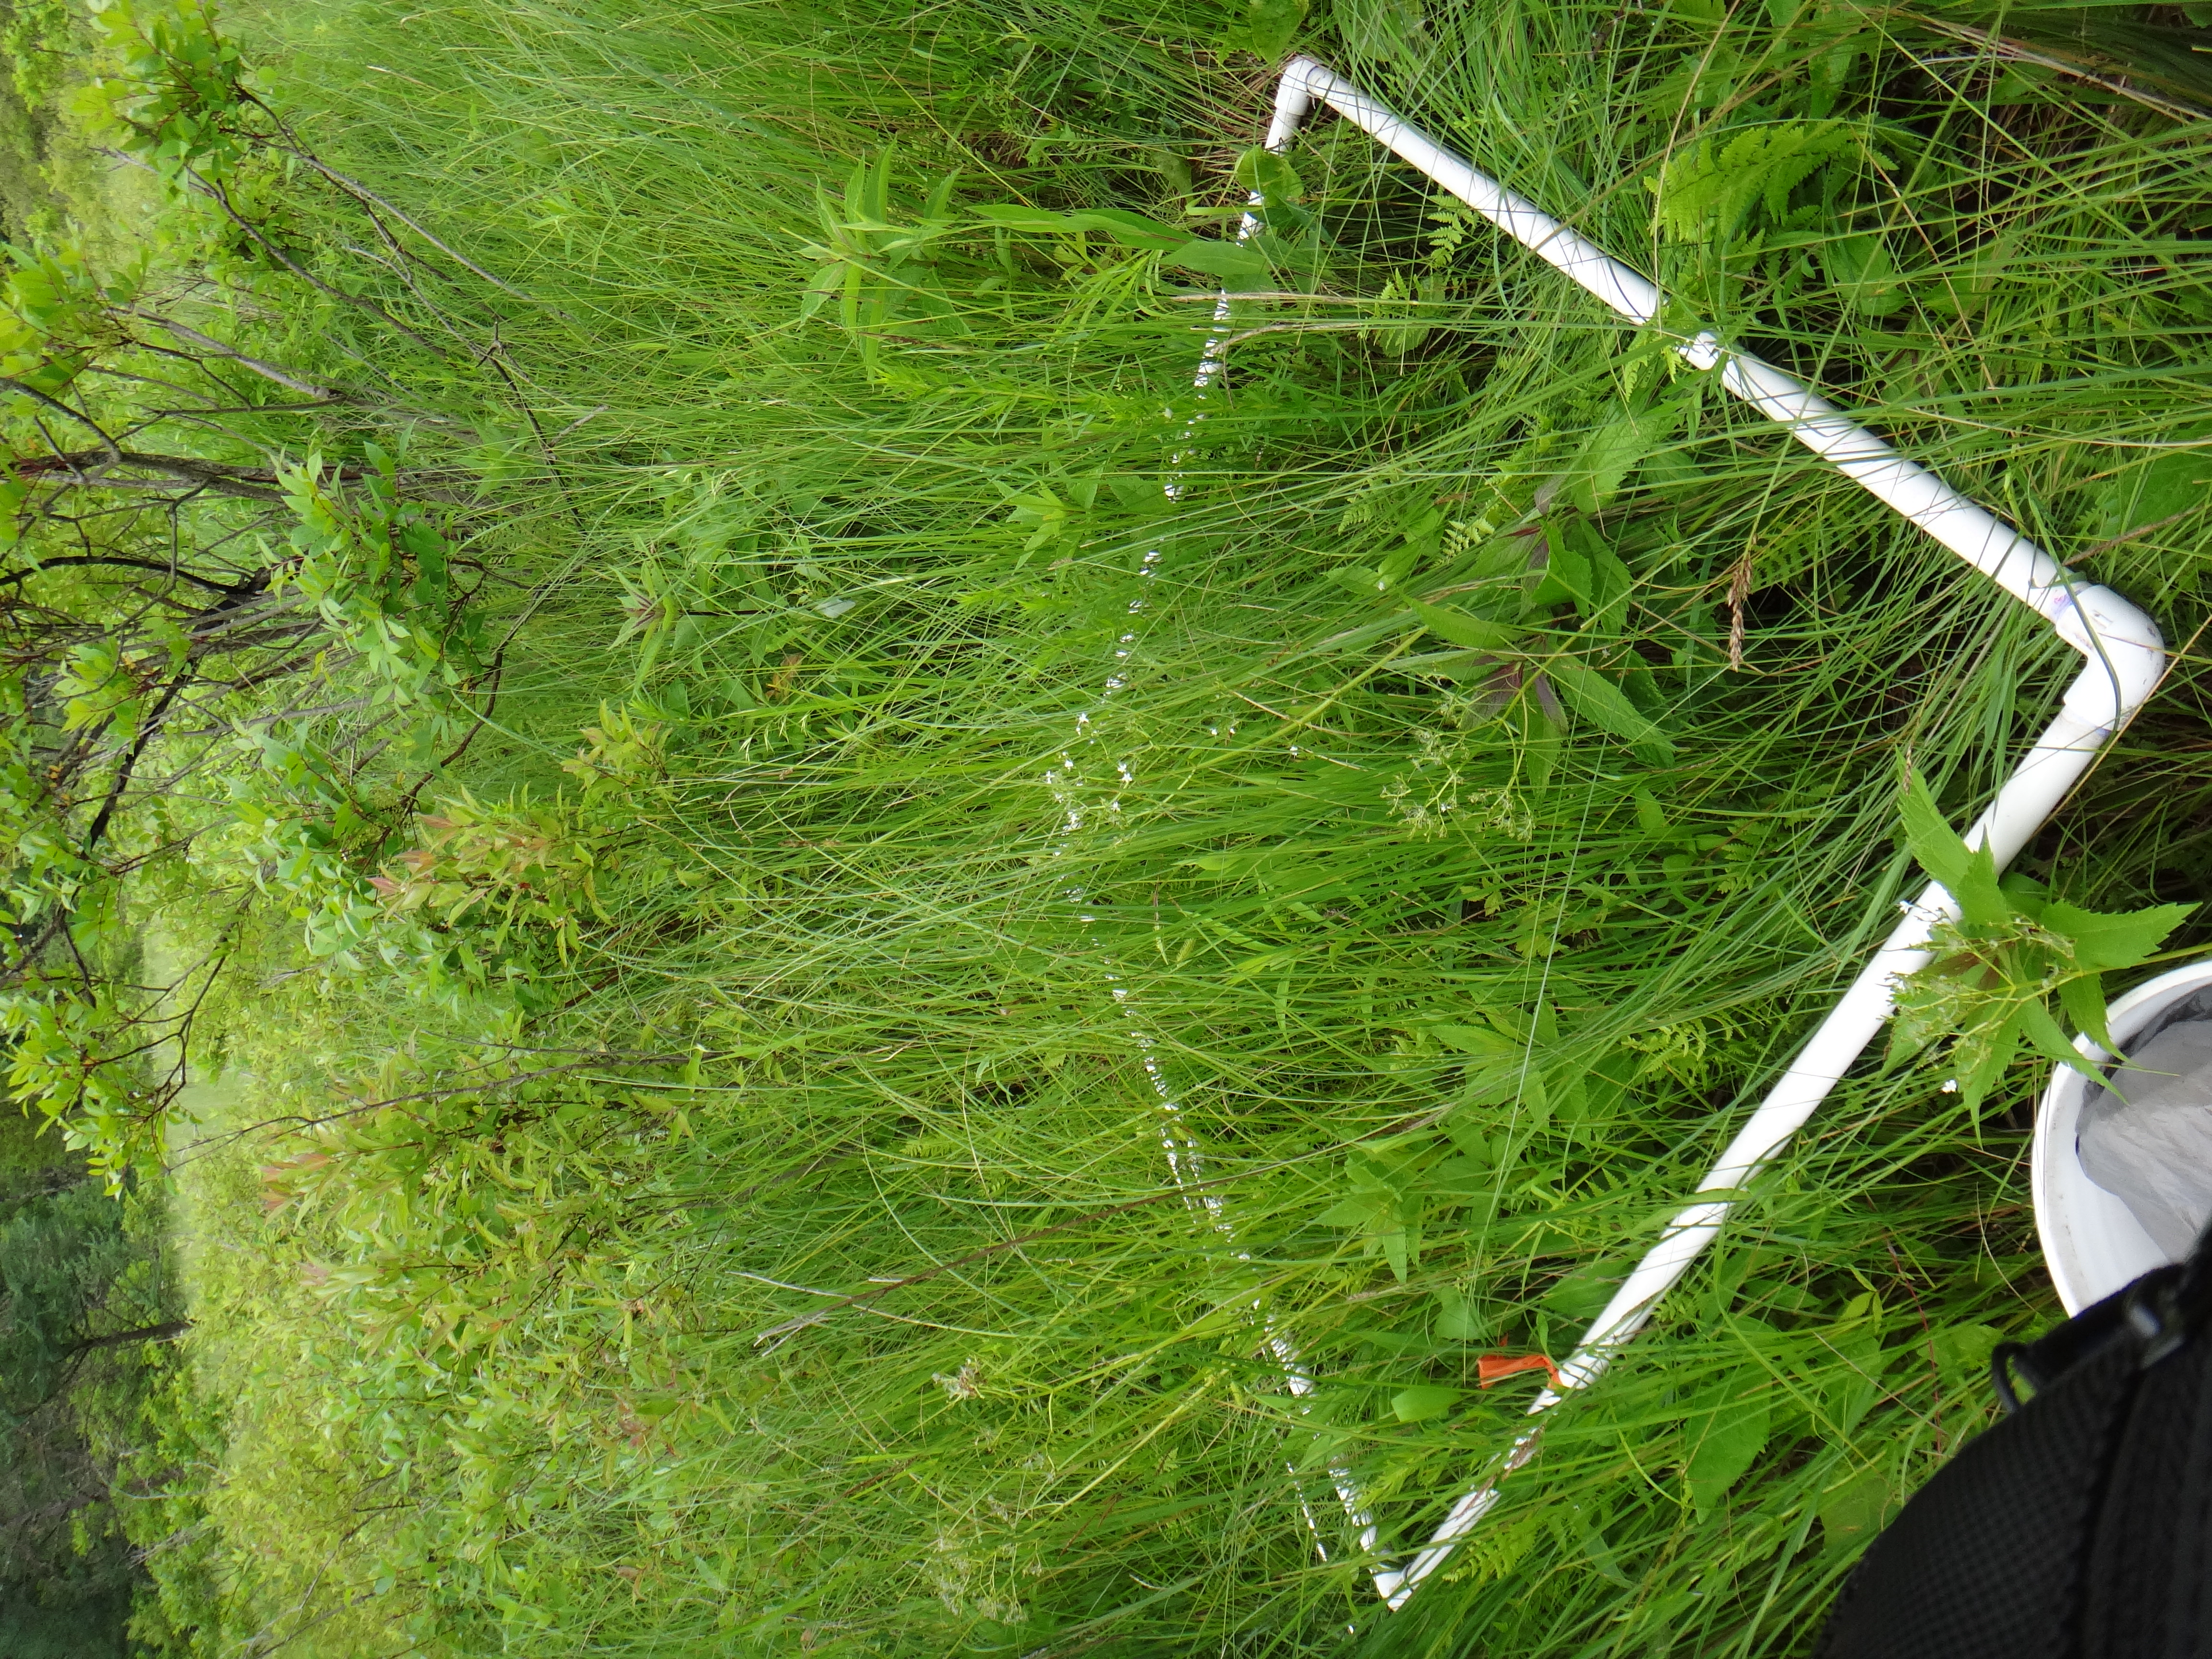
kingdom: Plantae
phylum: Tracheophyta
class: Magnoliopsida
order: Lamiales
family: Lamiaceae
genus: Lycopus
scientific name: Lycopus americanus
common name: American bugleweed
